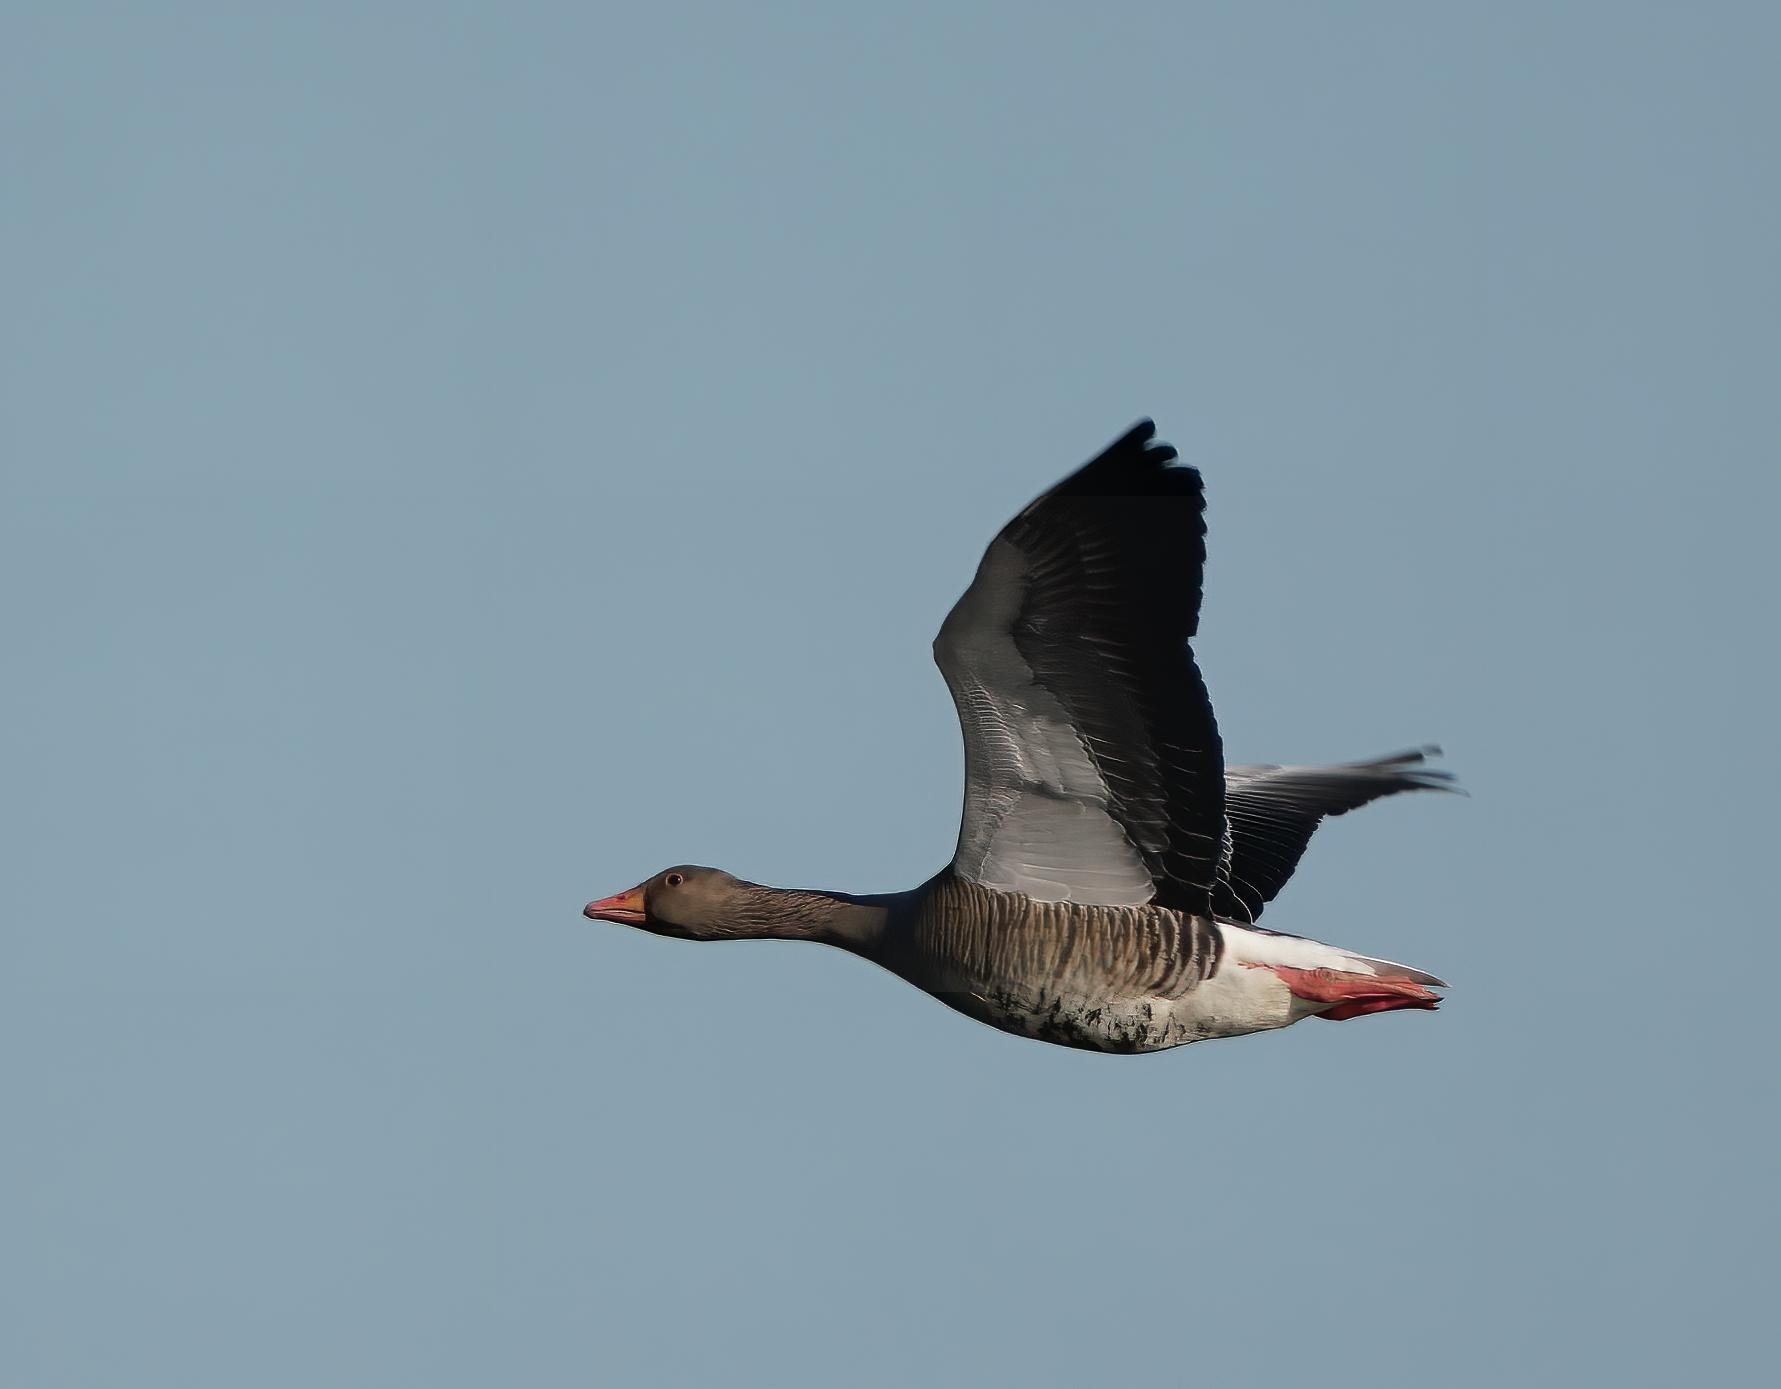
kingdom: Animalia
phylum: Chordata
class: Aves
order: Anseriformes
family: Anatidae
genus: Anser
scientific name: Anser anser
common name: Grågås
